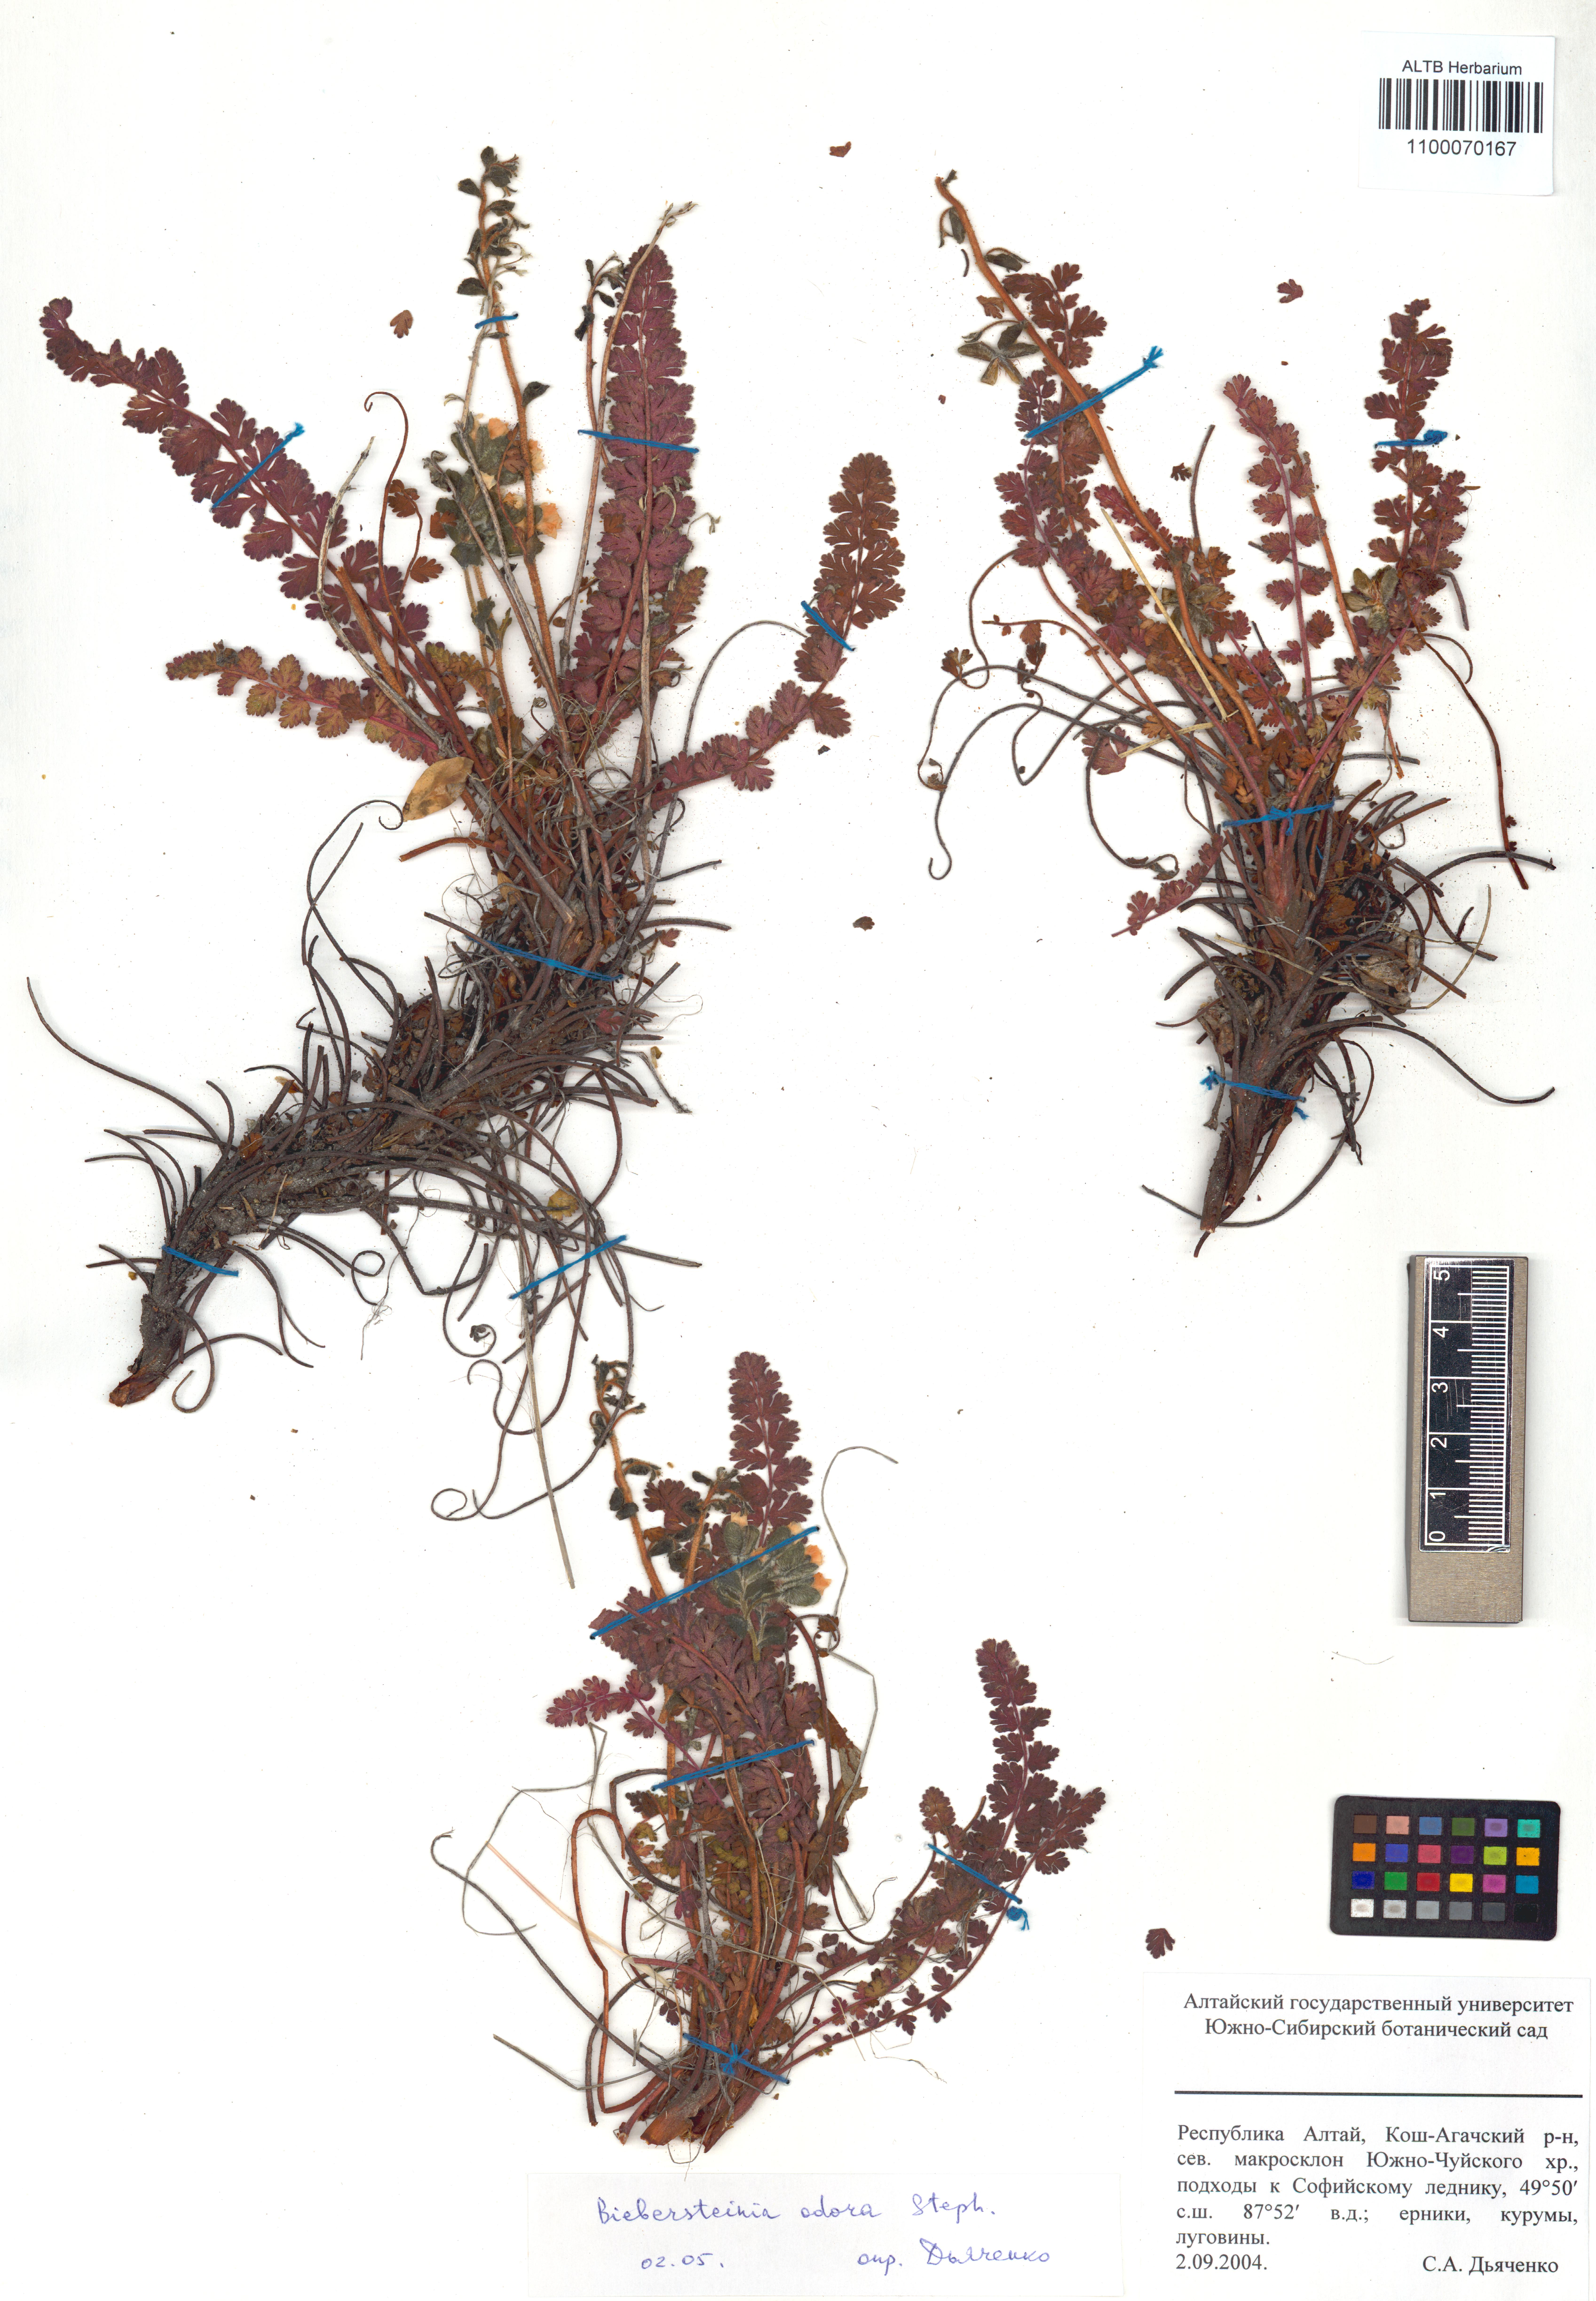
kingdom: Plantae
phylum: Tracheophyta
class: Magnoliopsida
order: Sapindales
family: Biebersteiniaceae
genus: Biebersteinia
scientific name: Biebersteinia odora
